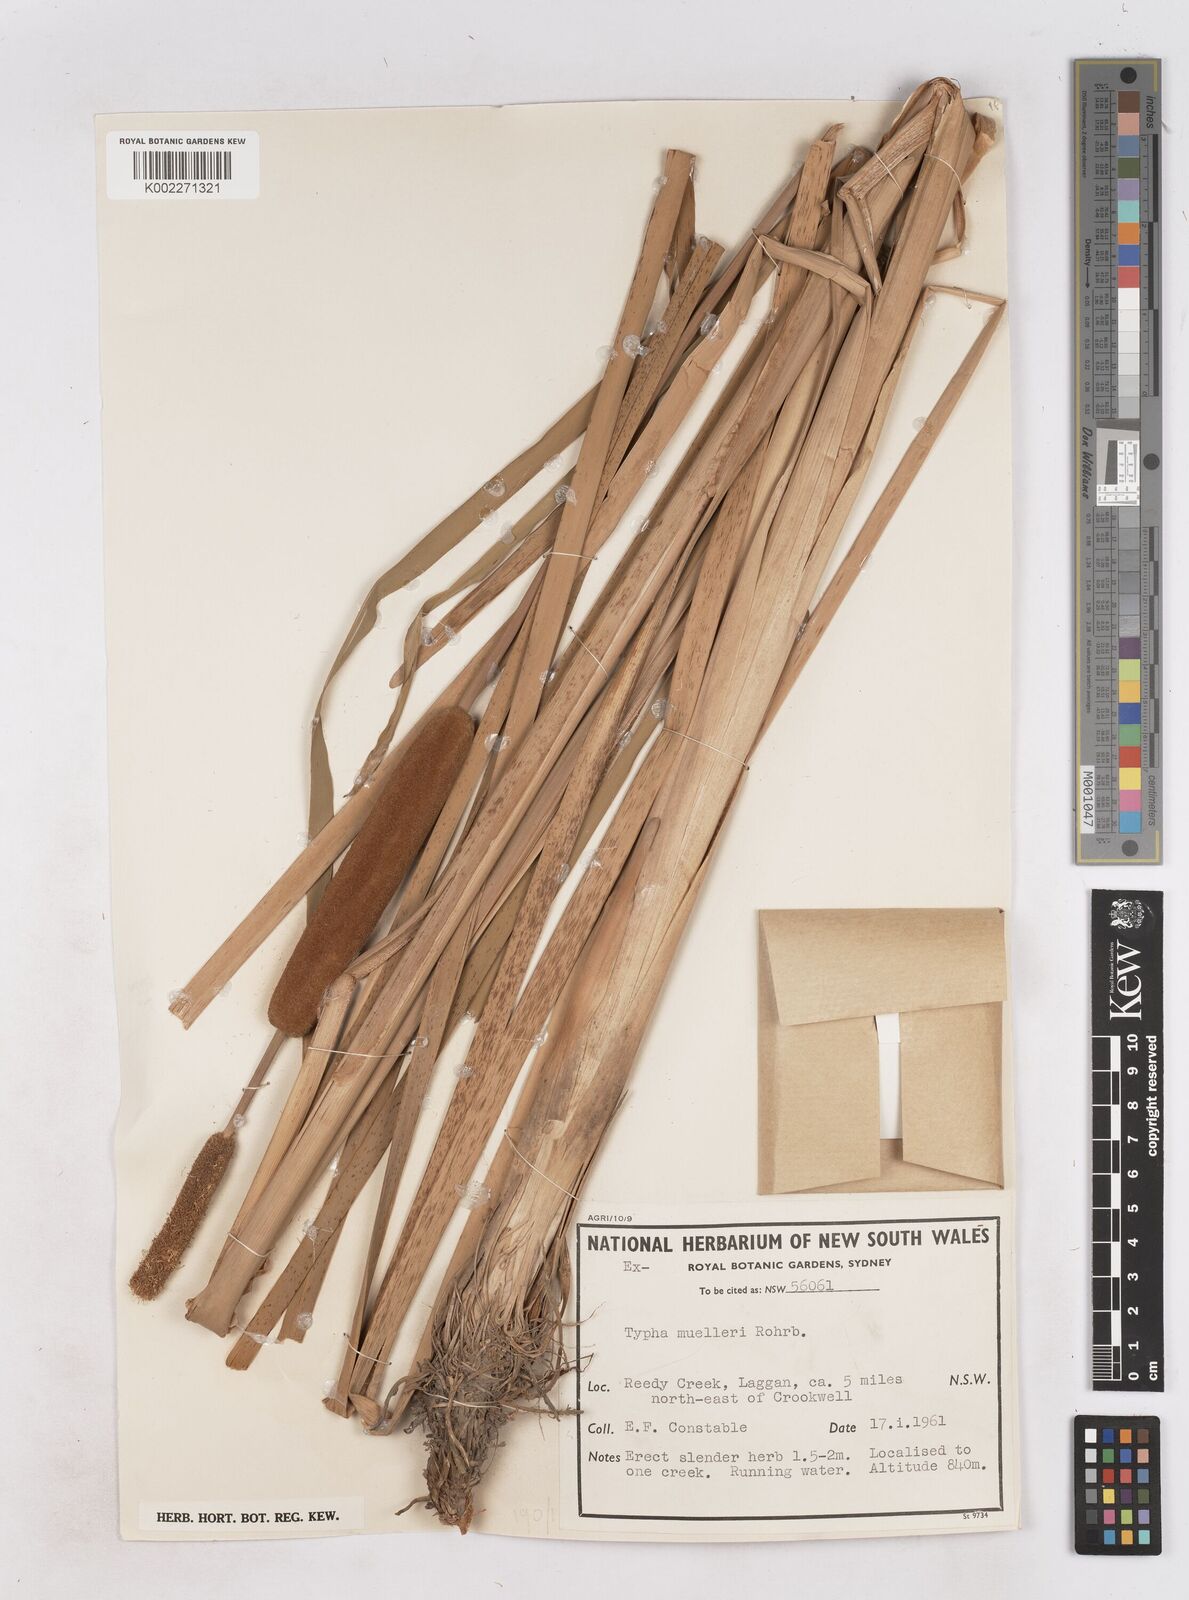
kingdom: Plantae
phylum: Tracheophyta
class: Liliopsida
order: Poales
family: Typhaceae
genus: Typha
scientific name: Typha orientalis
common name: Bullrush
